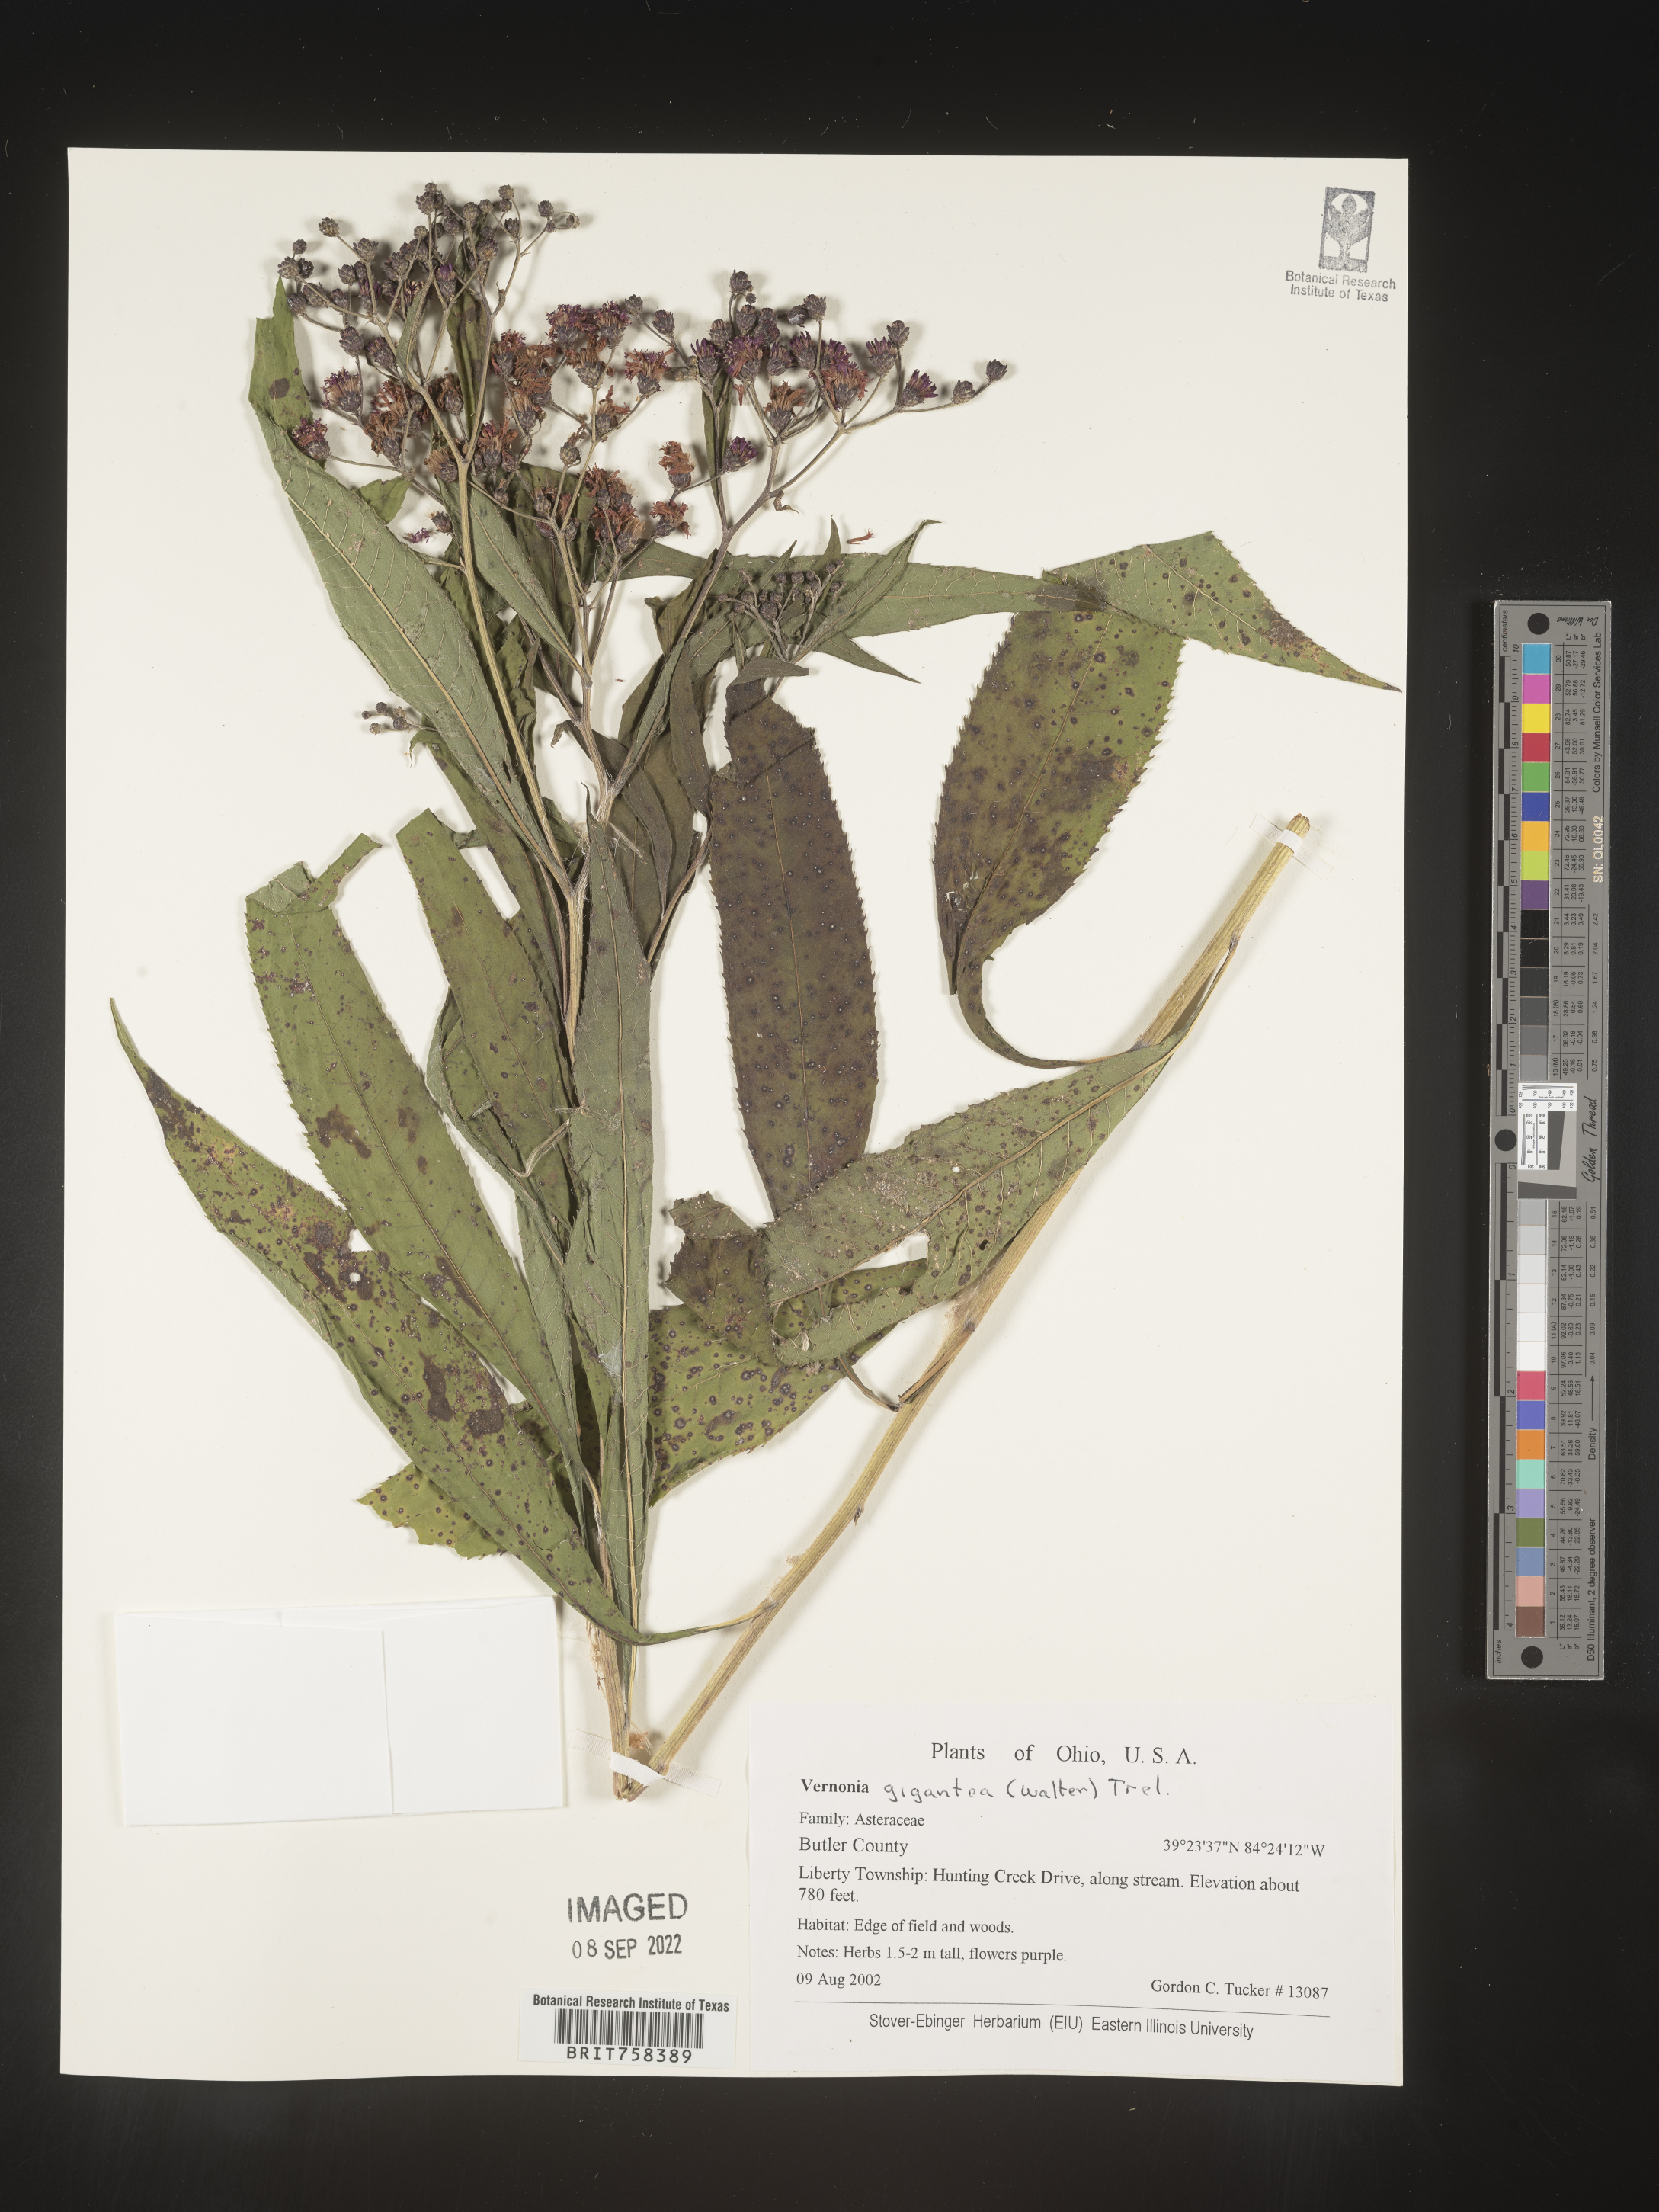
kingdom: Plantae
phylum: Tracheophyta
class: Magnoliopsida
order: Asterales
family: Asteraceae
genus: Vernonia
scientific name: Vernonia gigantea
